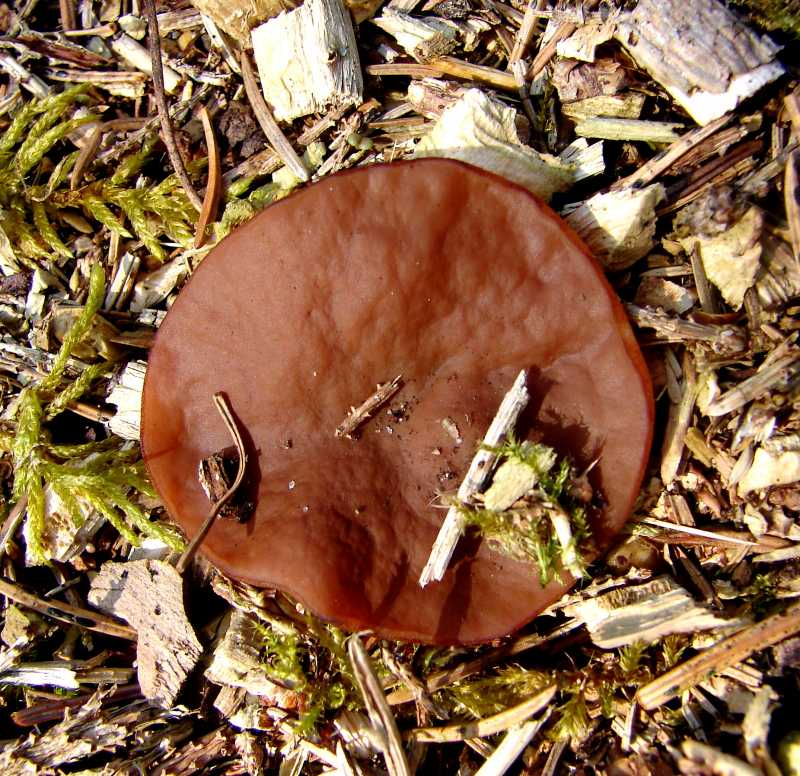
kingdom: Fungi
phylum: Ascomycota
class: Pezizomycetes
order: Pezizales
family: Discinaceae
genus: Discina
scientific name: Discina ancilis
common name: udbredt stenmorkel
